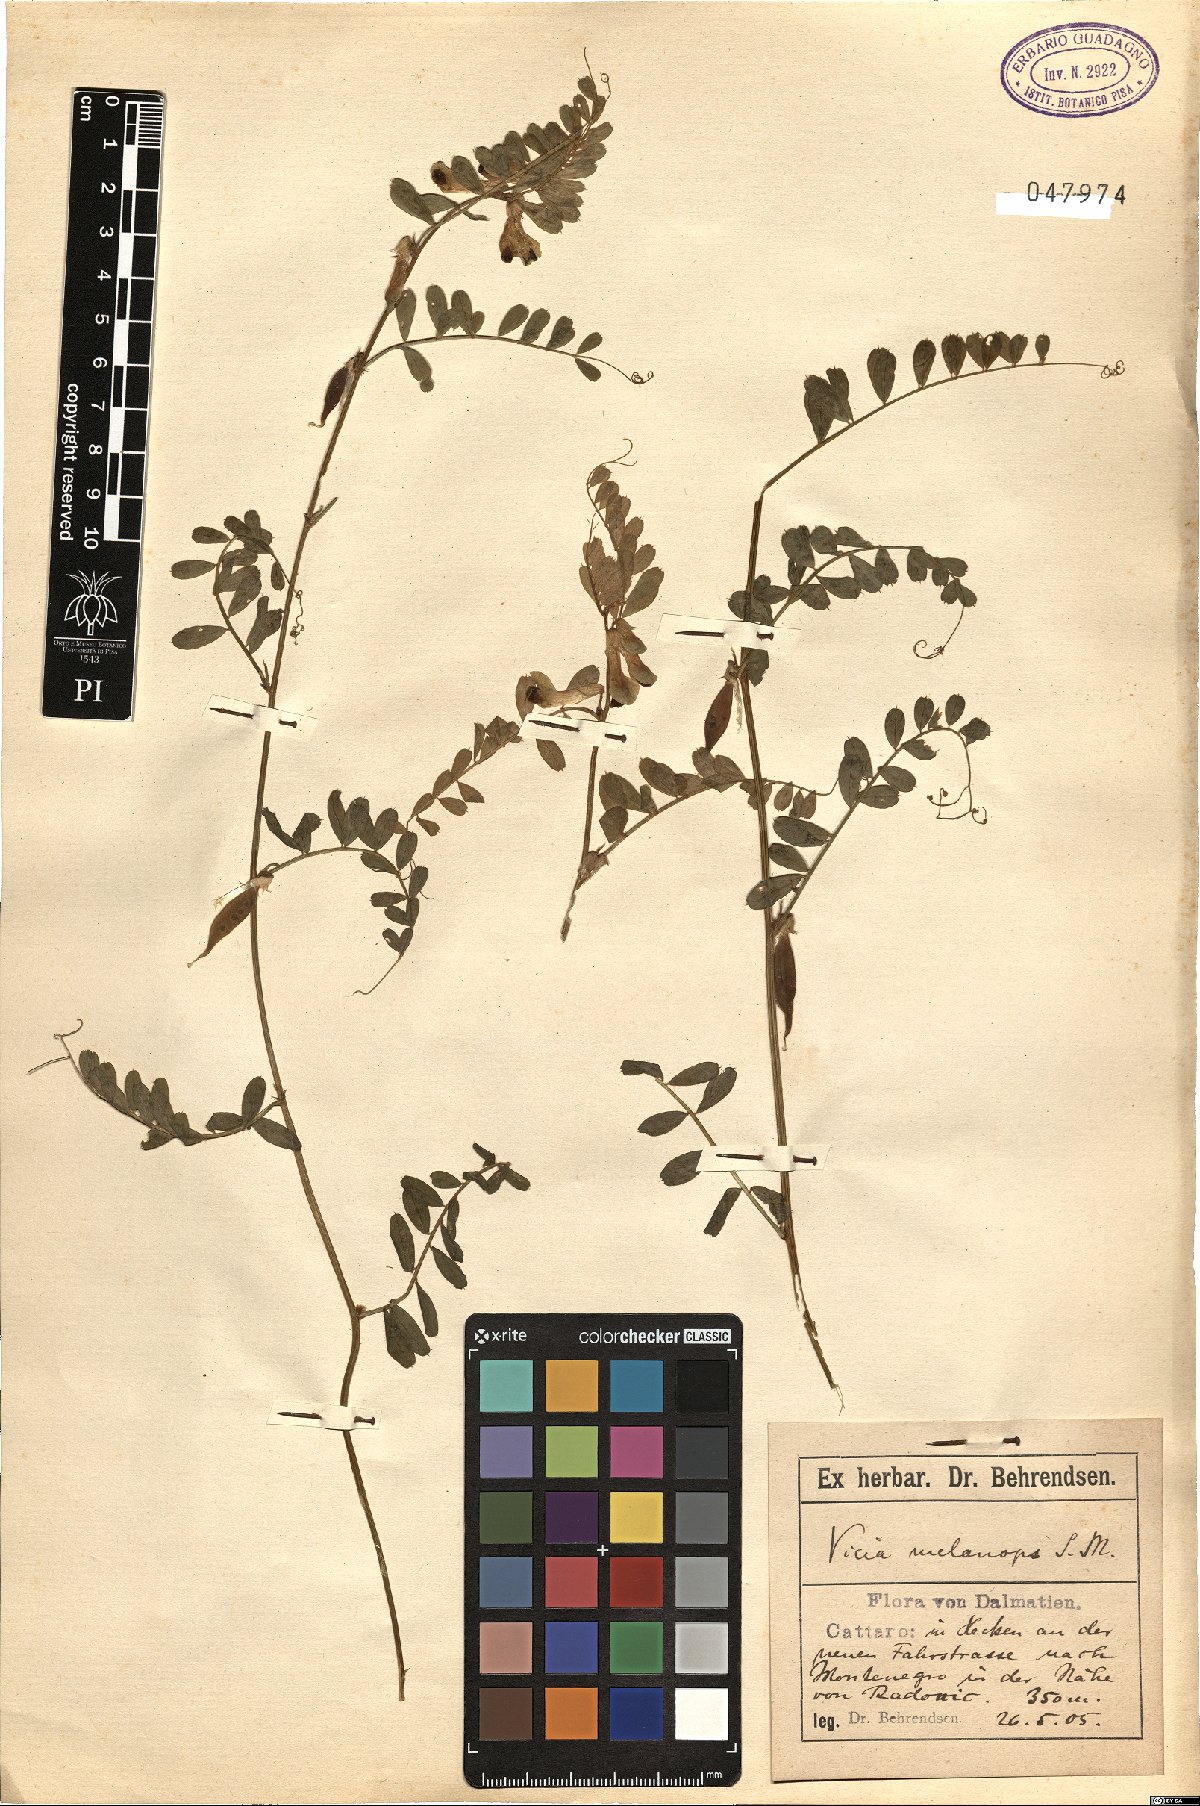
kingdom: Plantae
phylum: Tracheophyta
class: Magnoliopsida
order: Fabales
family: Fabaceae
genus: Vicia
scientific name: Vicia melanops
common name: Black-eyed vetch
